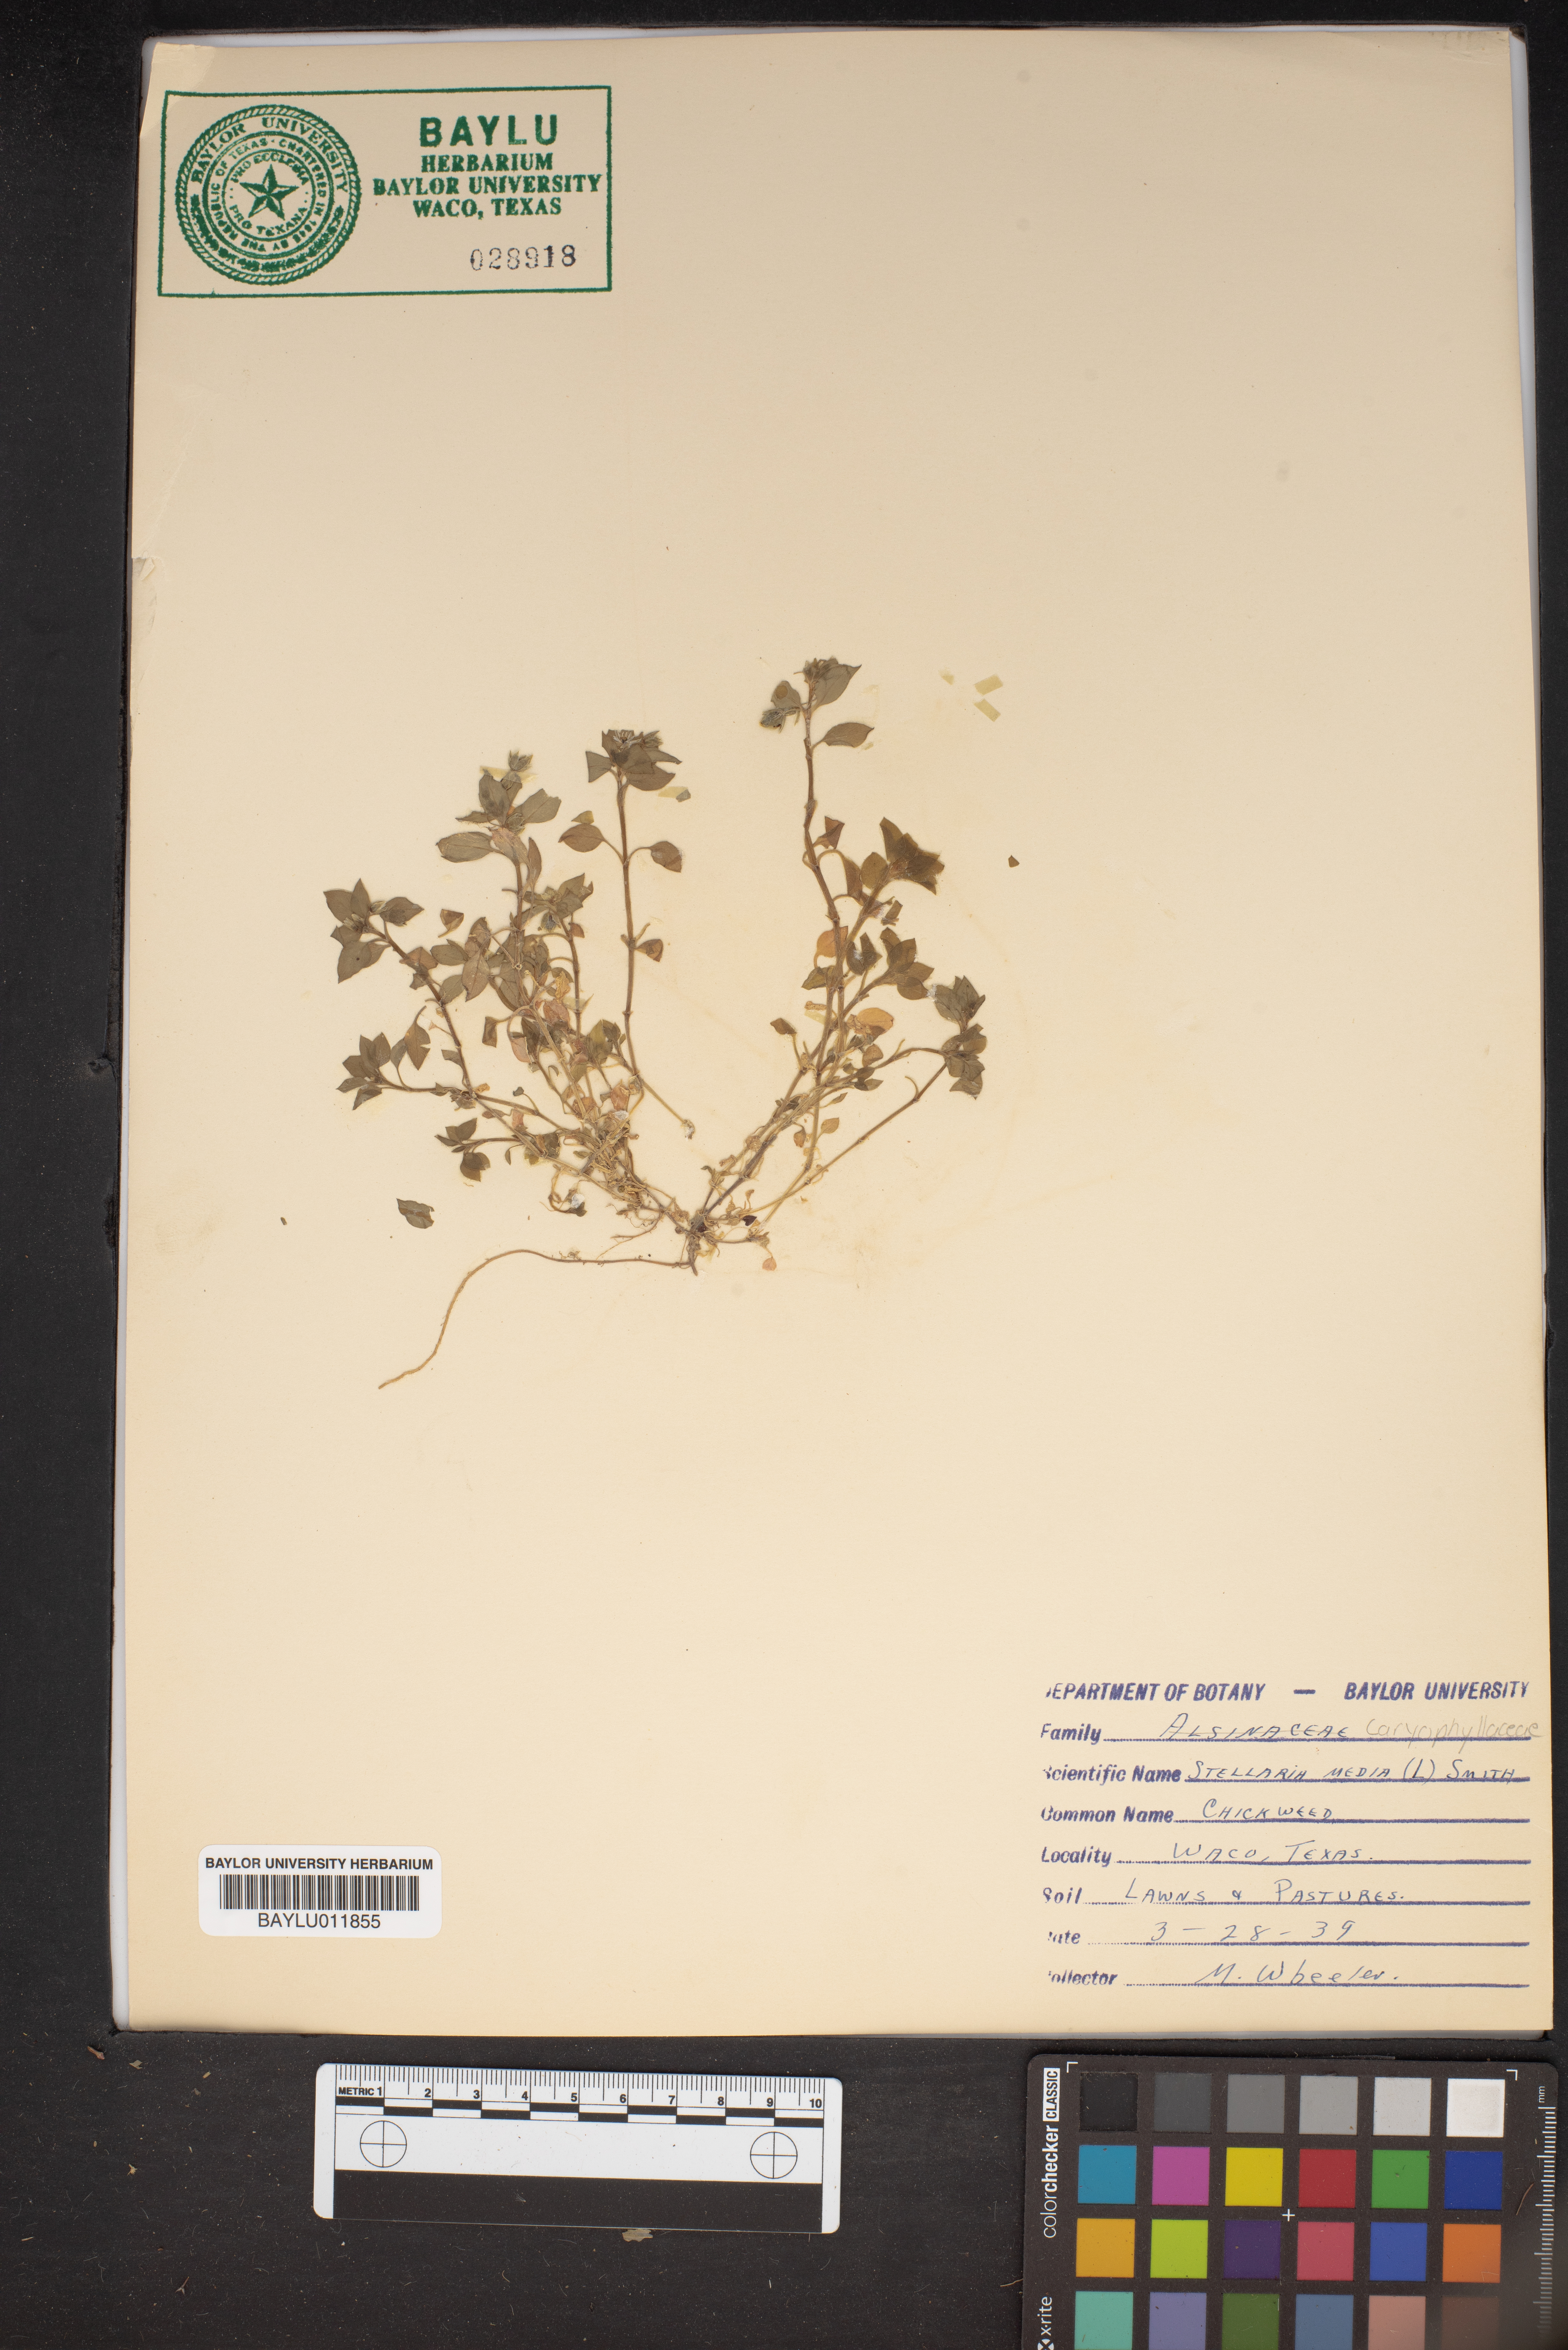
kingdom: Plantae
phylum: Tracheophyta
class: Magnoliopsida
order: Caryophyllales
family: Caryophyllaceae
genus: Stellaria
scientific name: Stellaria media
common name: Common chickweed
